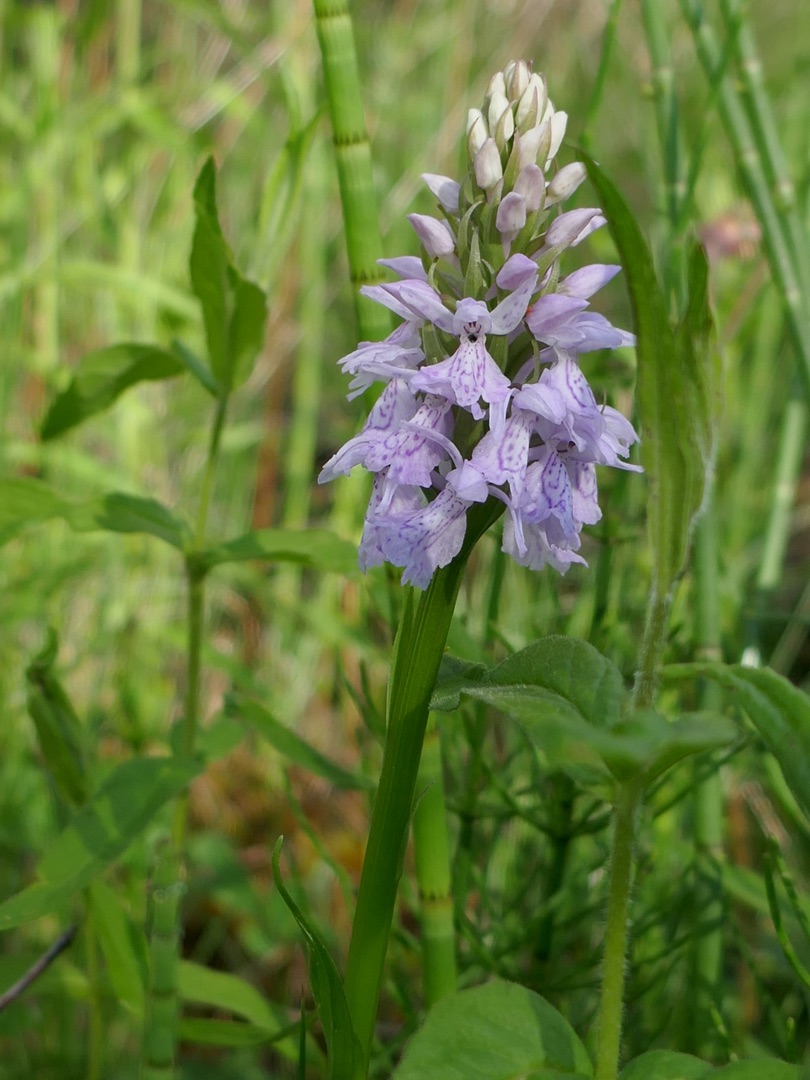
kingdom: Plantae
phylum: Tracheophyta
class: Liliopsida
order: Asparagales
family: Orchidaceae
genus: Dactylorhiza
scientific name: Dactylorhiza maculata
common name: Plettet gøgeurt
